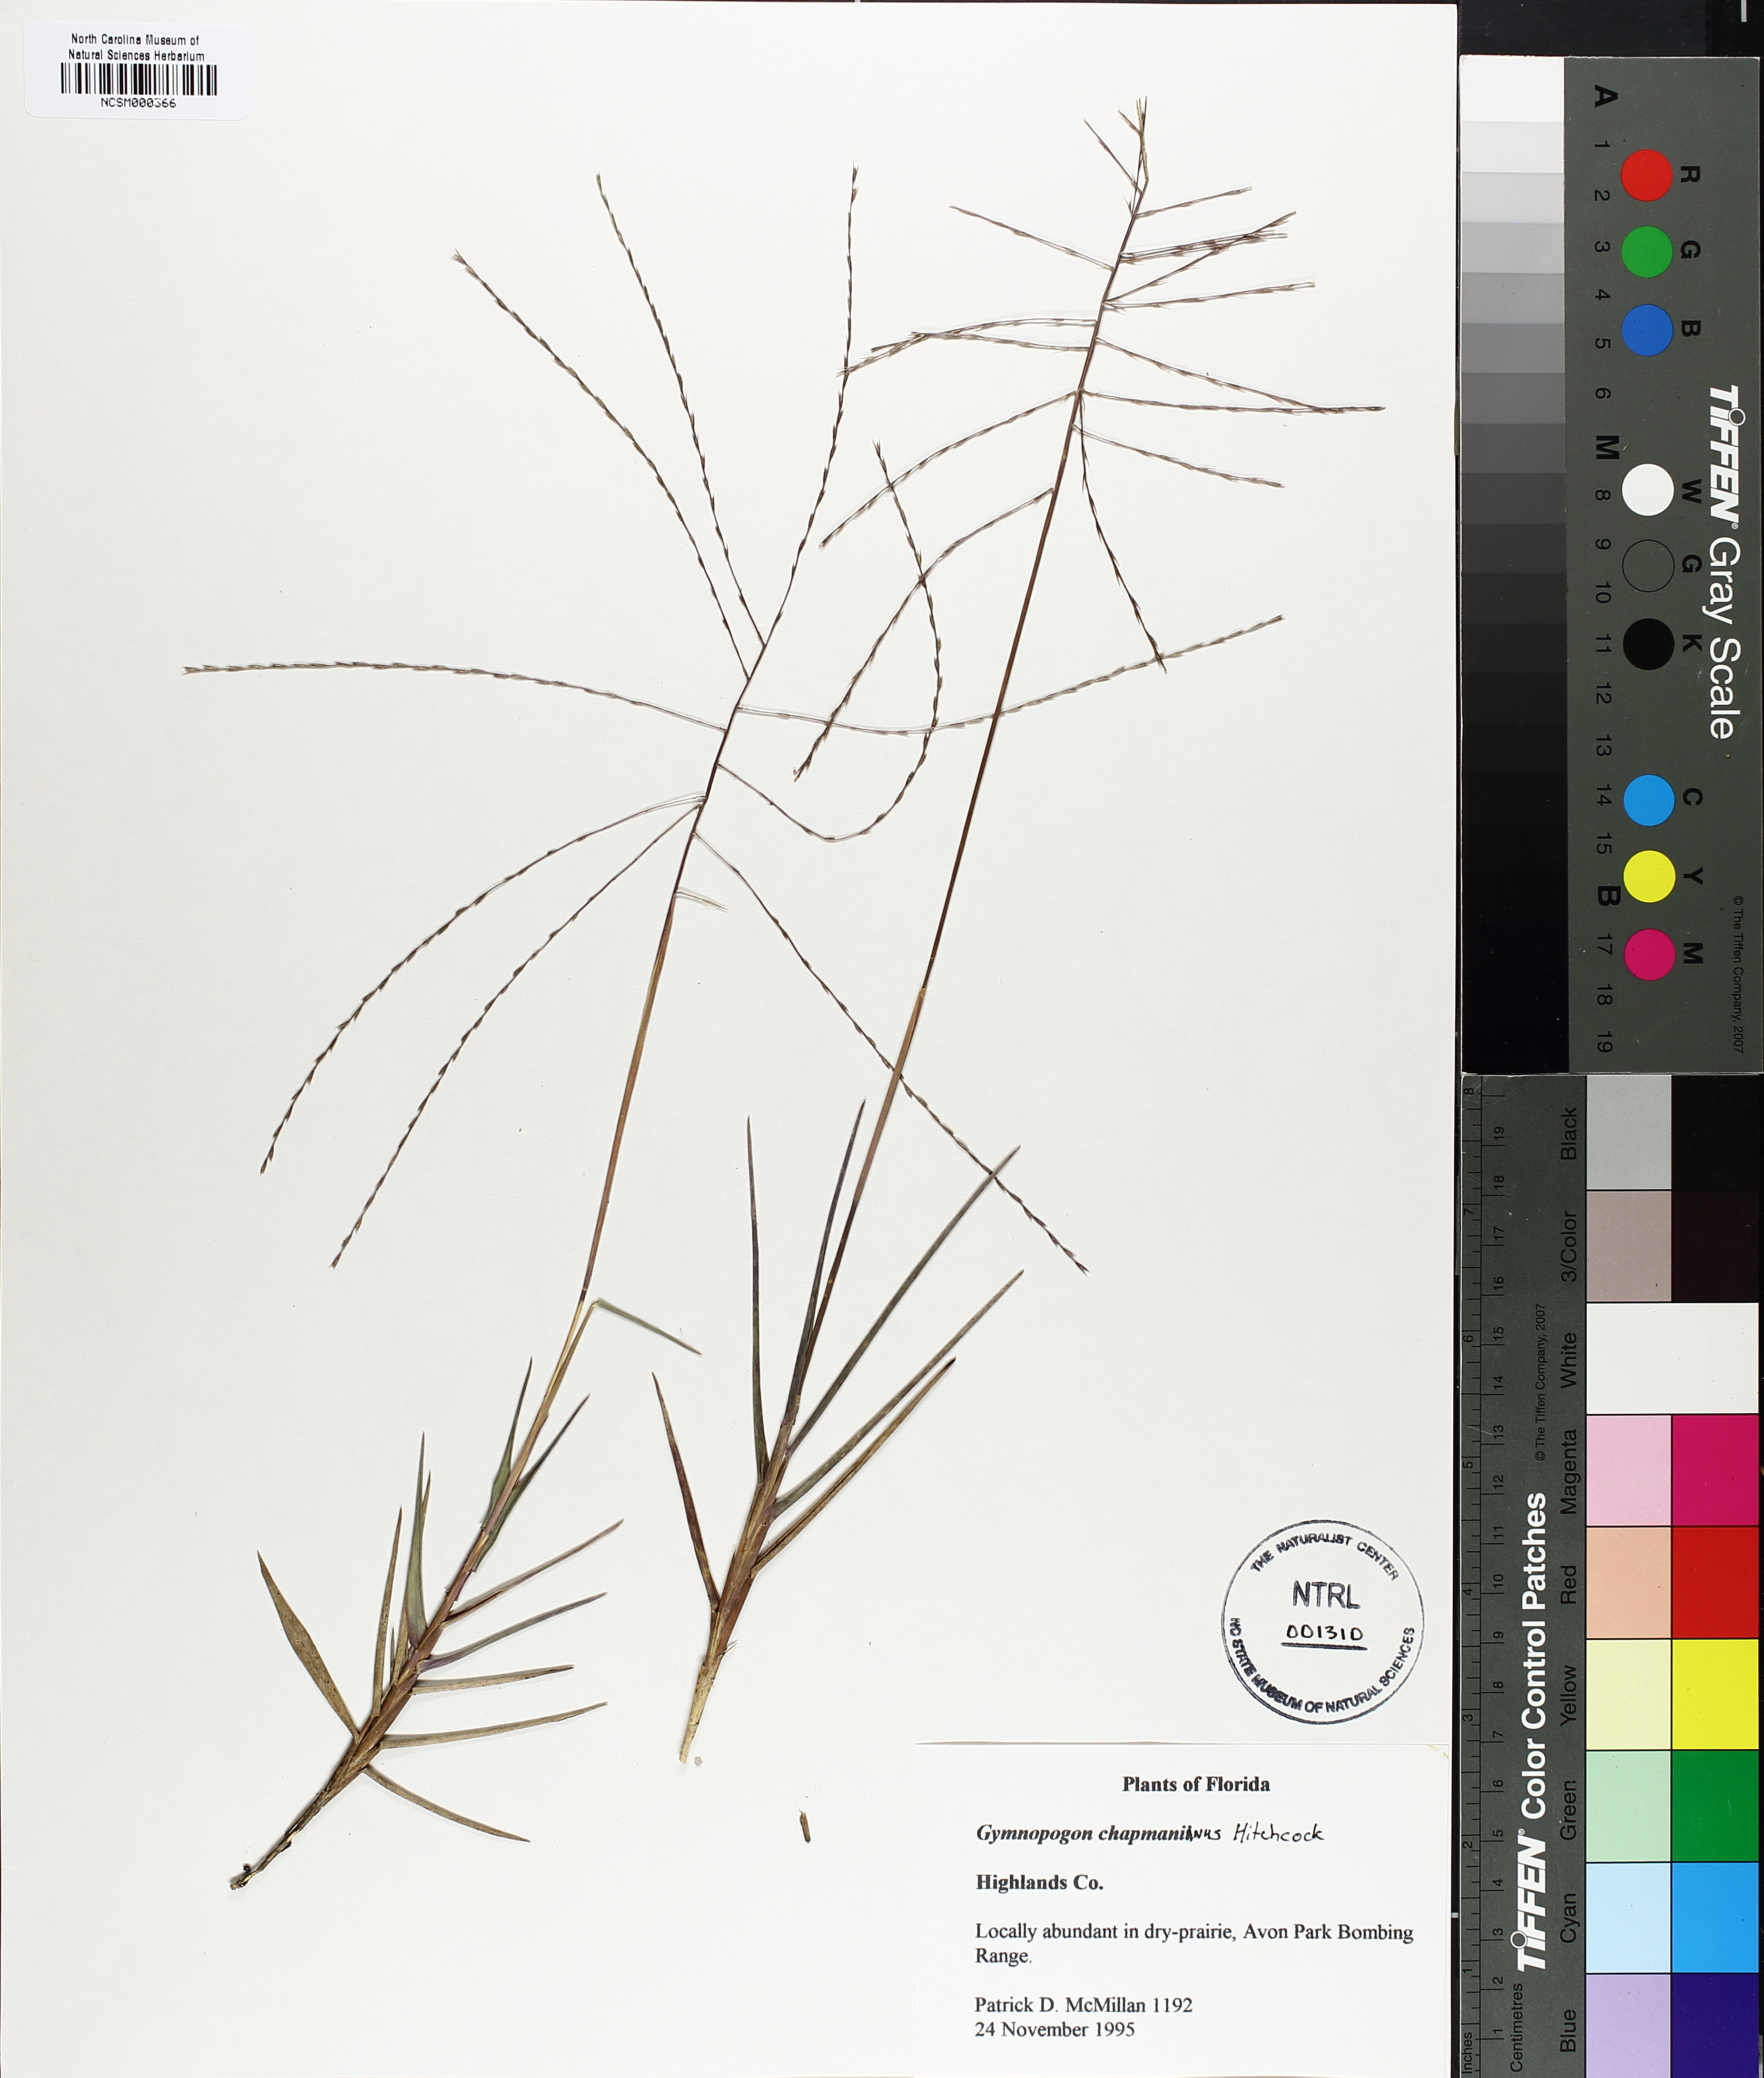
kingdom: Plantae
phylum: Tracheophyta
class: Liliopsida
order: Poales
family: Poaceae
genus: Gymnopogon
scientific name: Gymnopogon chapmanianus
